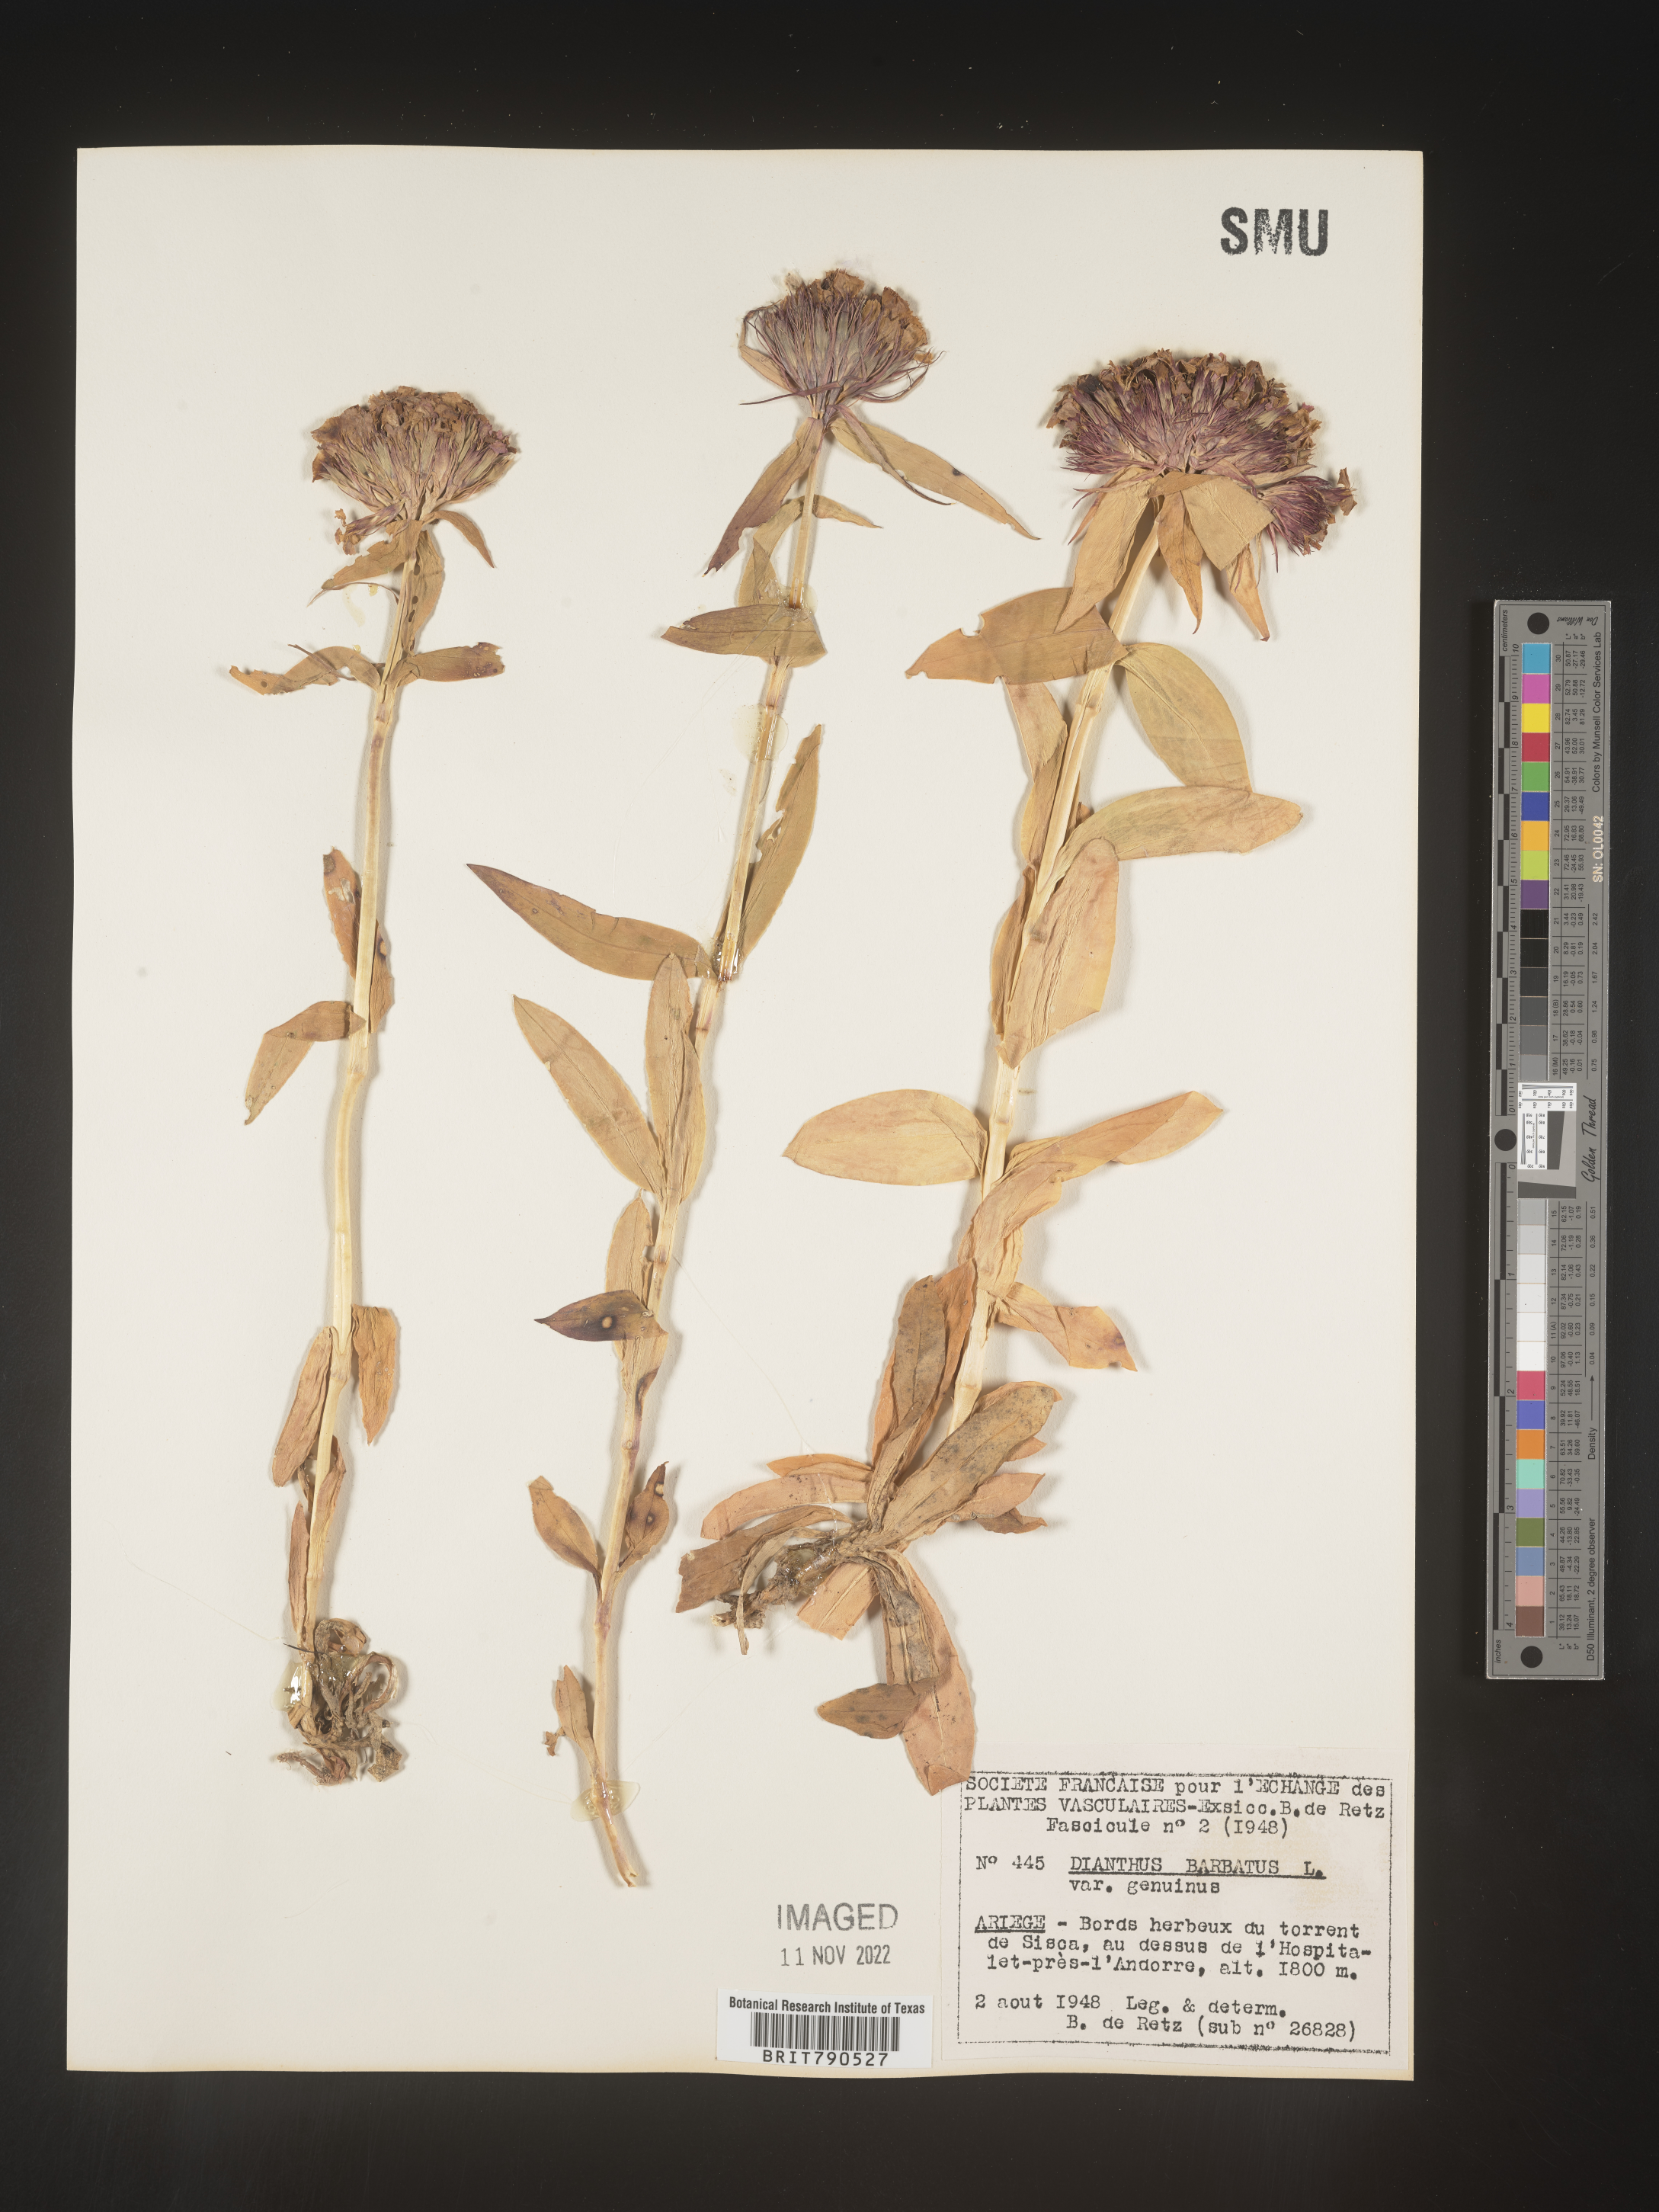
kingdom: Plantae
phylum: Tracheophyta
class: Magnoliopsida
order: Caryophyllales
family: Caryophyllaceae
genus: Dianthus
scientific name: Dianthus
